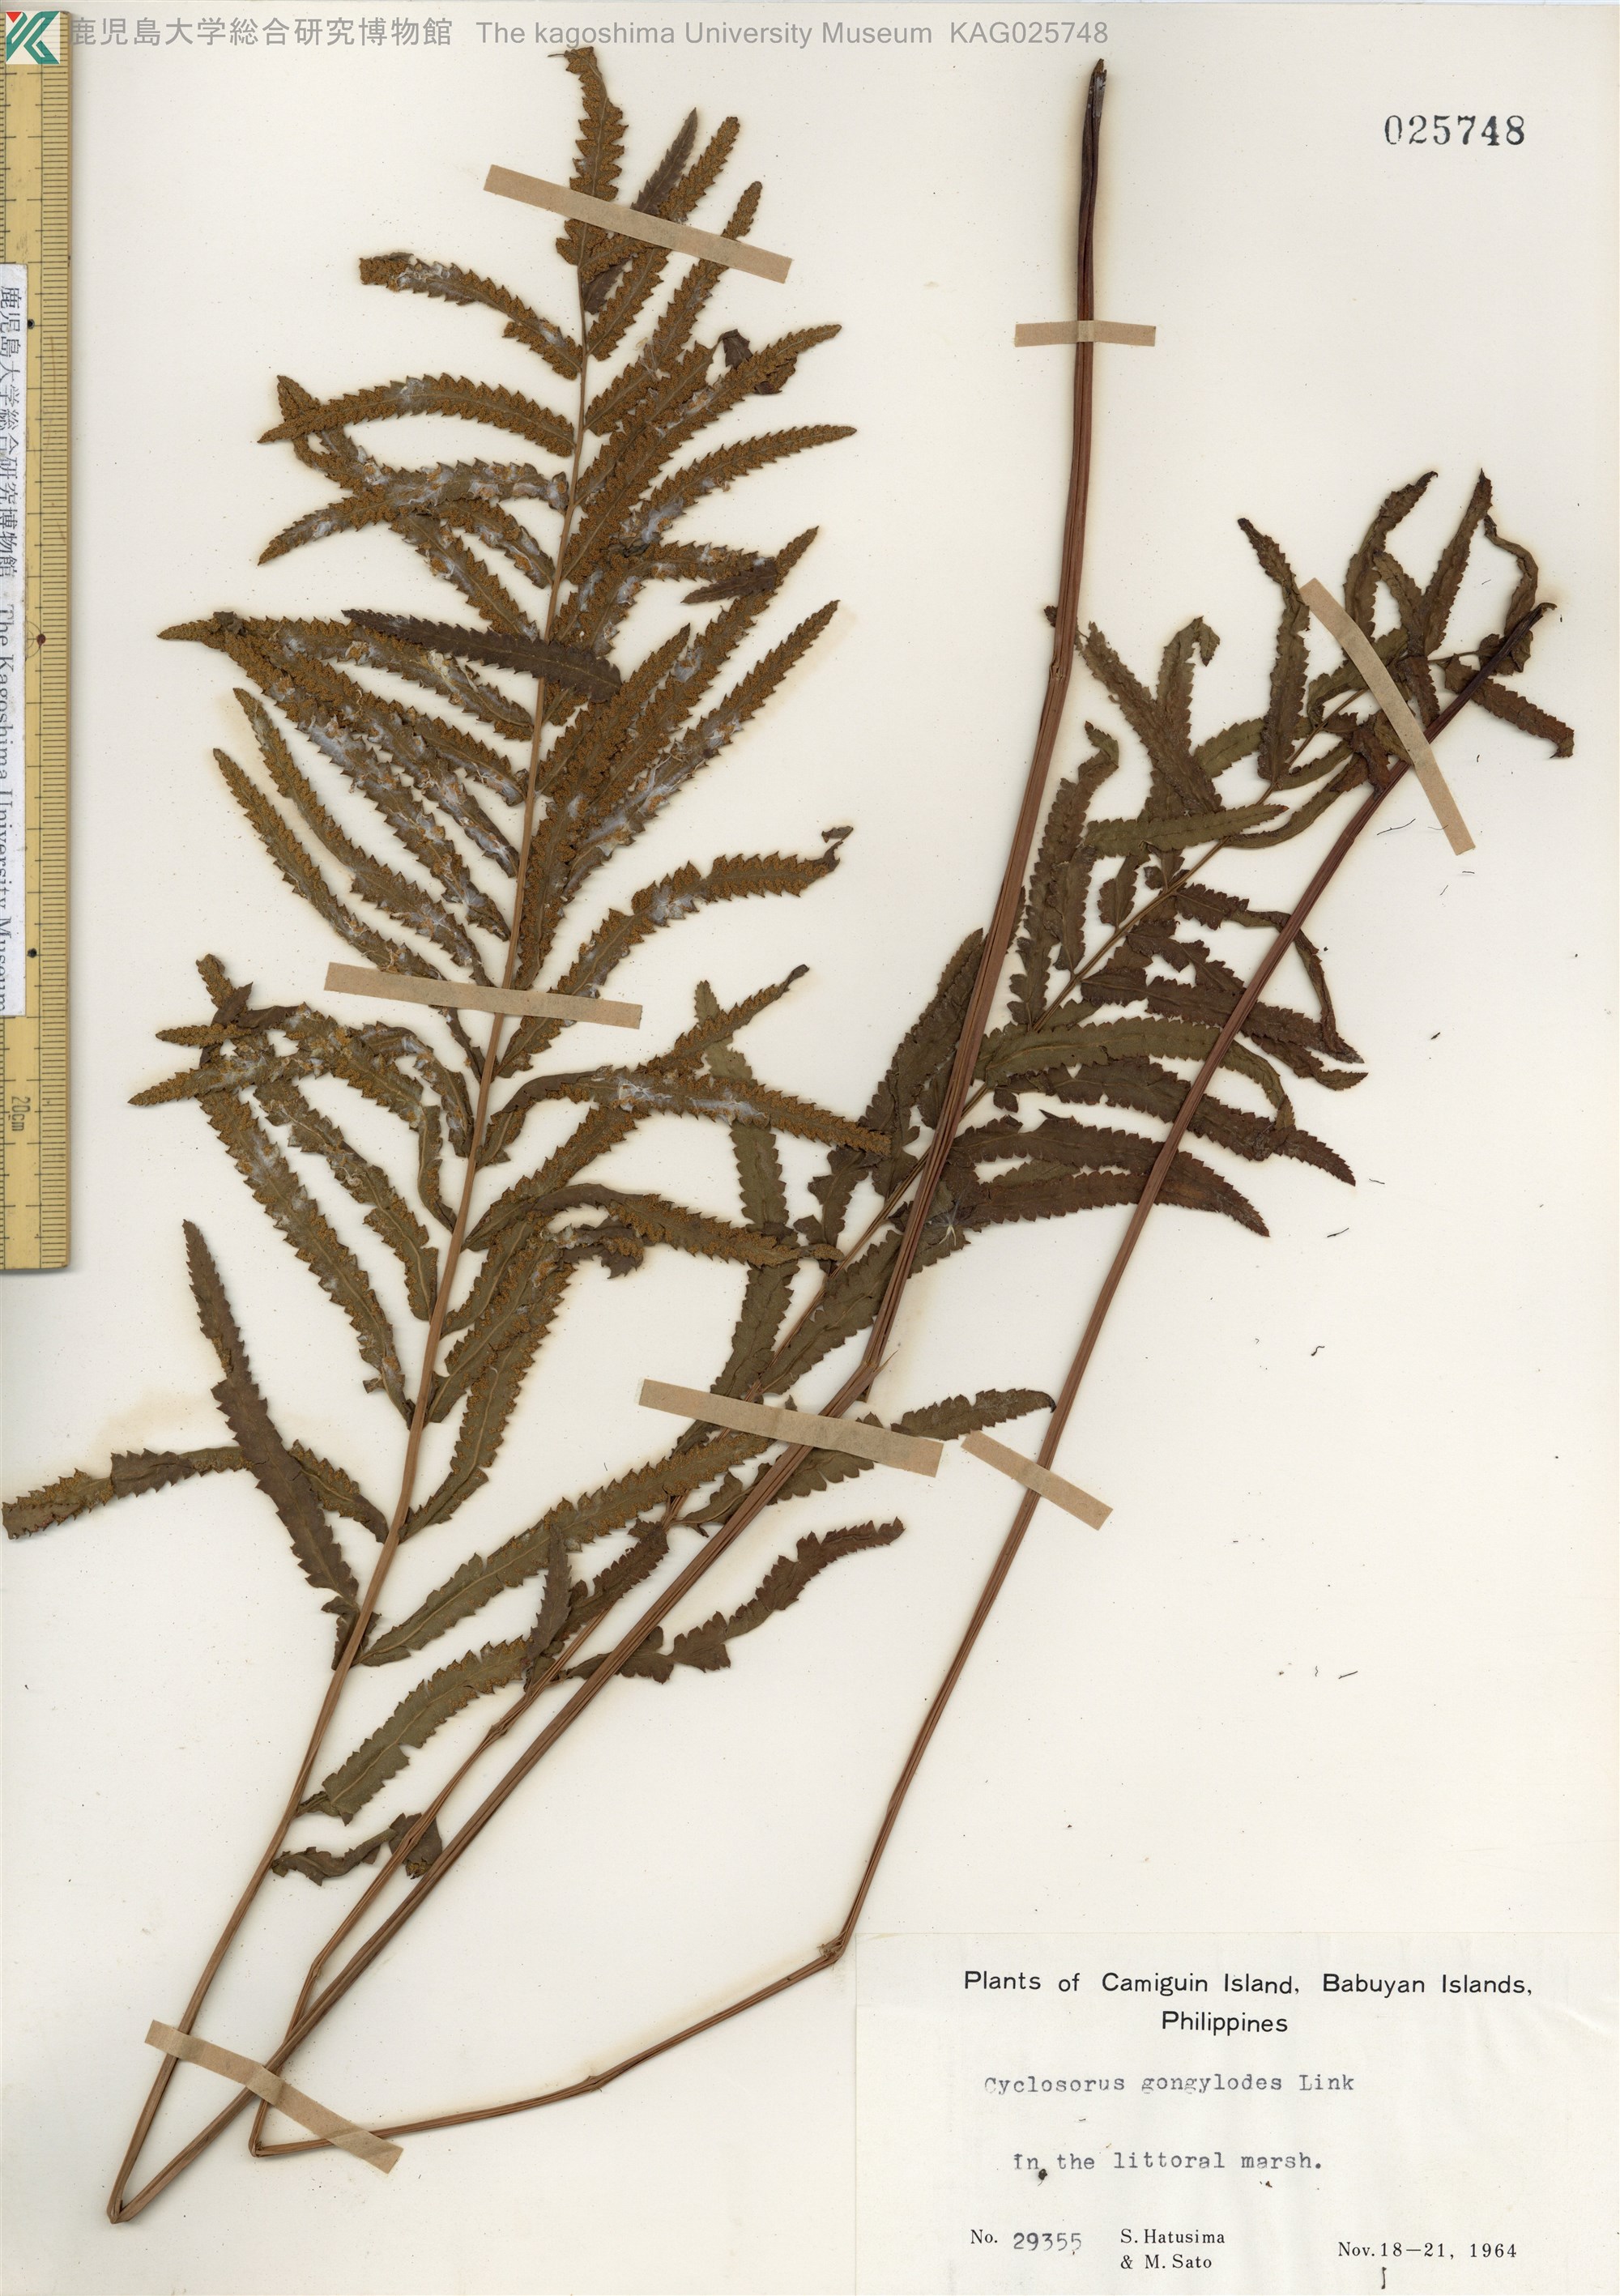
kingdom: Plantae
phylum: Tracheophyta
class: Polypodiopsida
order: Polypodiales
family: Thelypteridaceae
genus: Cyclosorus
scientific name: Cyclosorus interruptus
